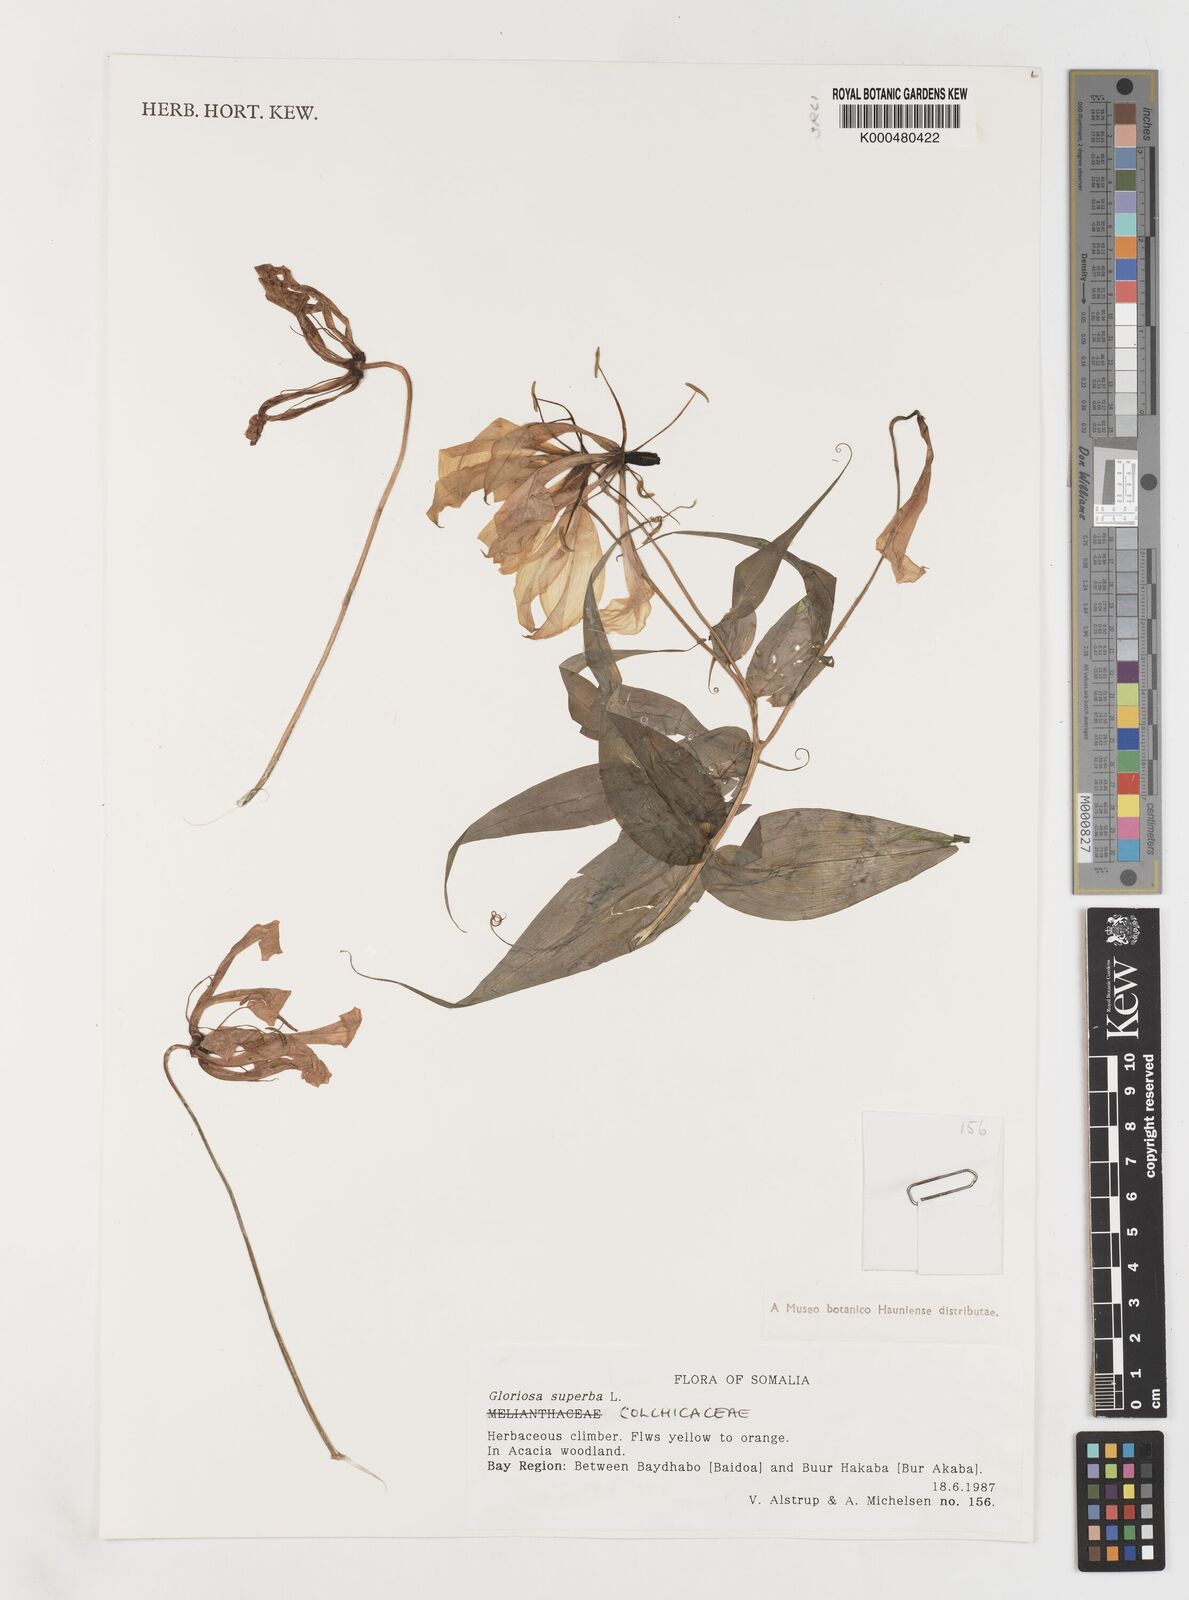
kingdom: Plantae
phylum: Tracheophyta
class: Liliopsida
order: Liliales
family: Colchicaceae
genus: Gloriosa
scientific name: Gloriosa superba
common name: Flame lily
